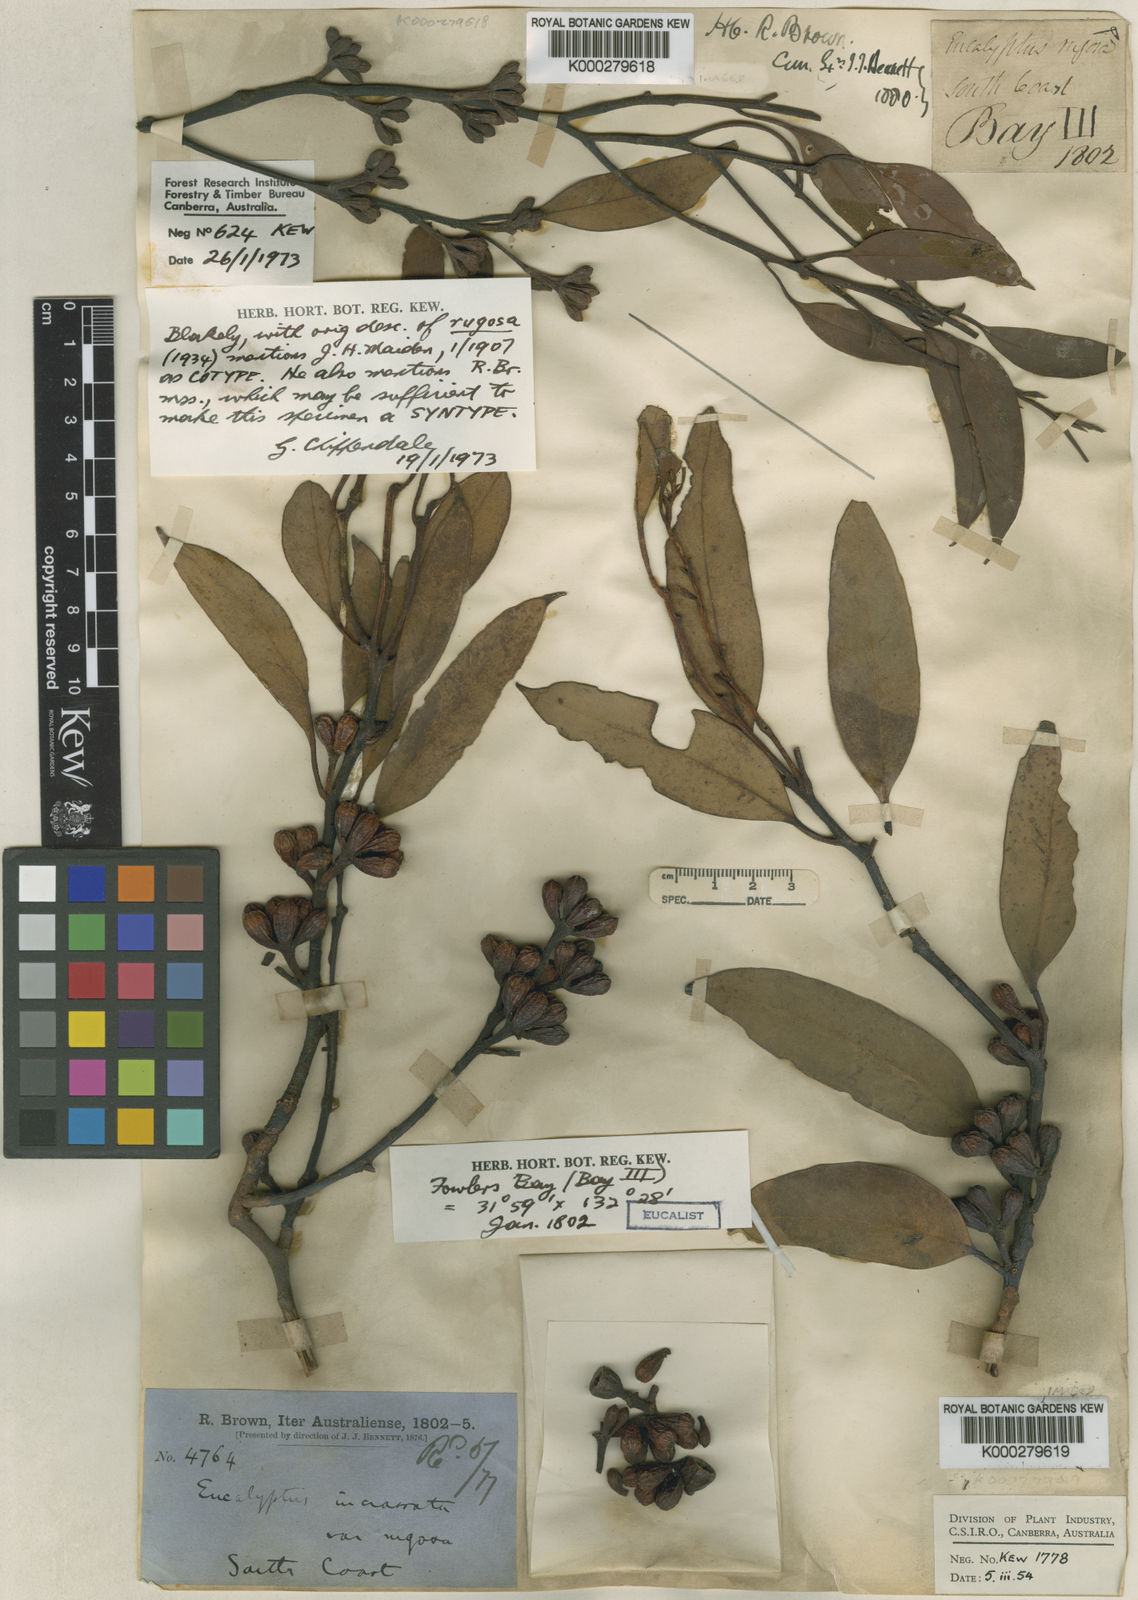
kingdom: Plantae
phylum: Tracheophyta
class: Magnoliopsida
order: Myrtales
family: Myrtaceae
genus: Eucalyptus
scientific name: Eucalyptus rugosa
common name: Kingscote mallee
